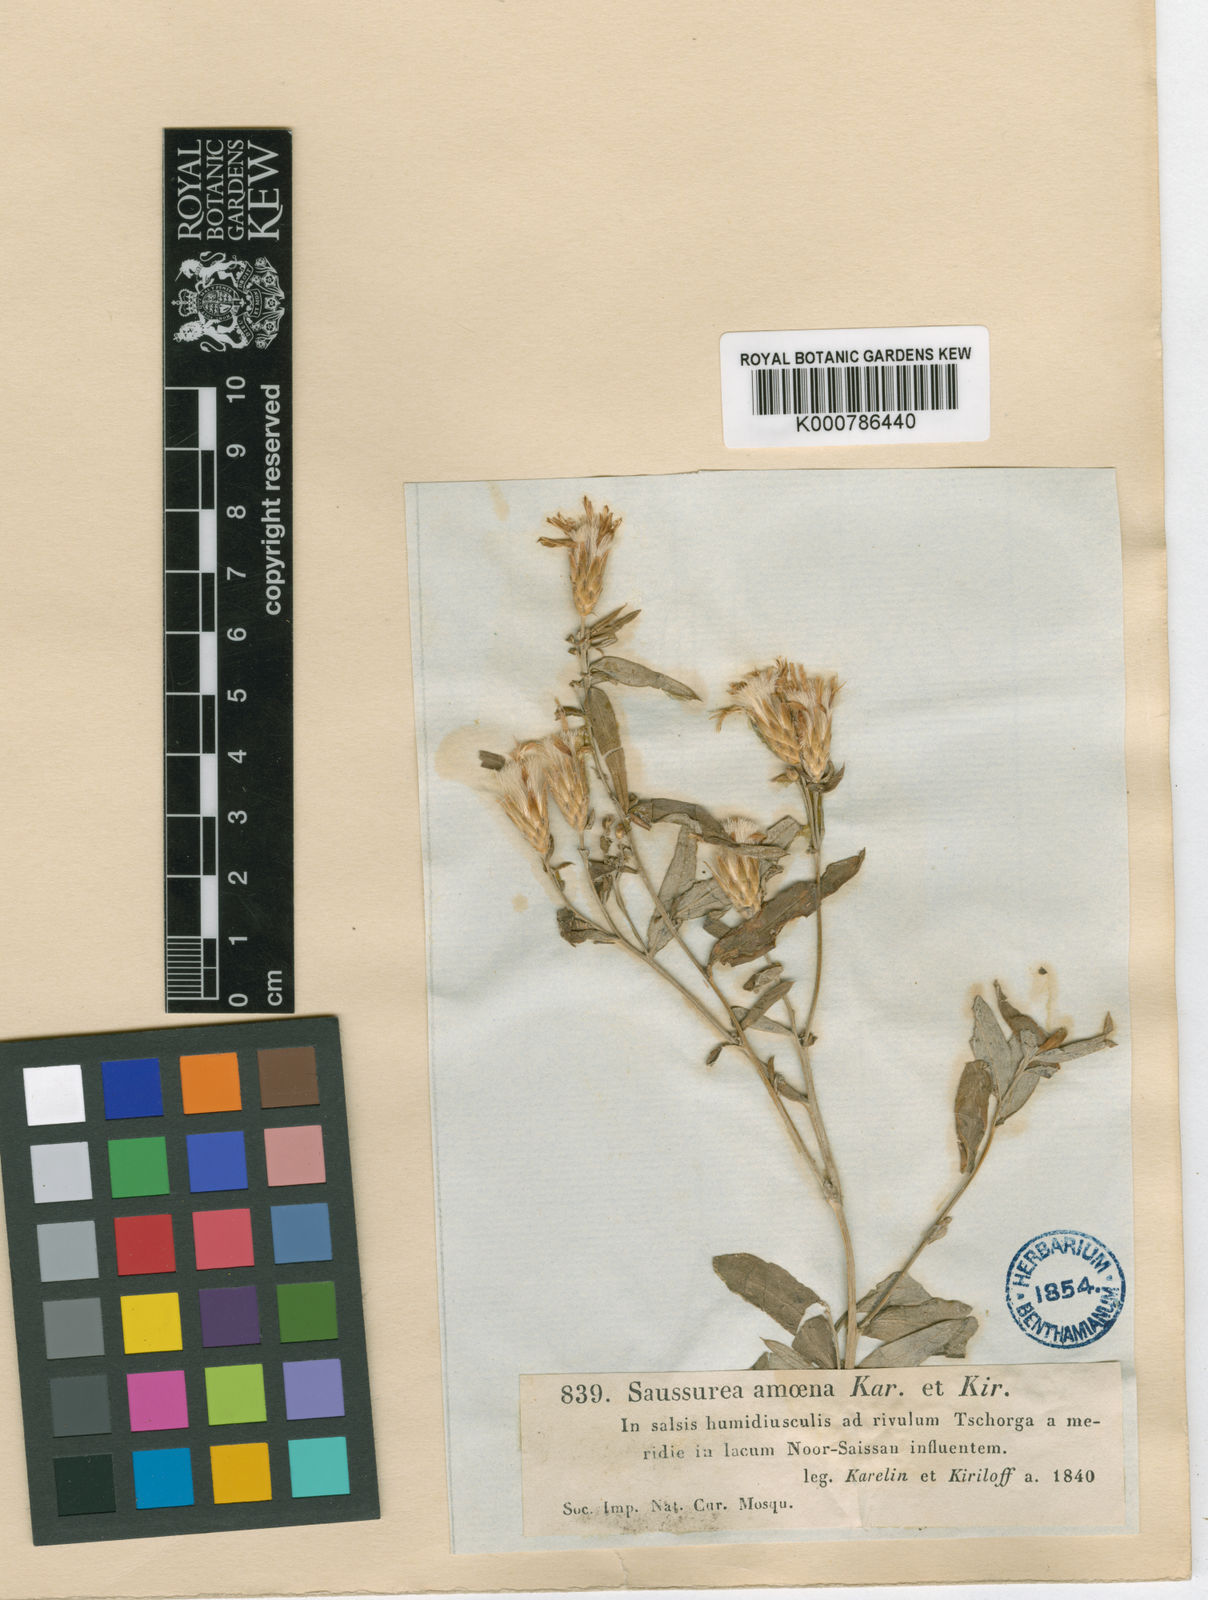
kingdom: Plantae
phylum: Tracheophyta
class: Magnoliopsida
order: Asterales
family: Asteraceae
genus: Saussurea
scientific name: Saussurea elegans
